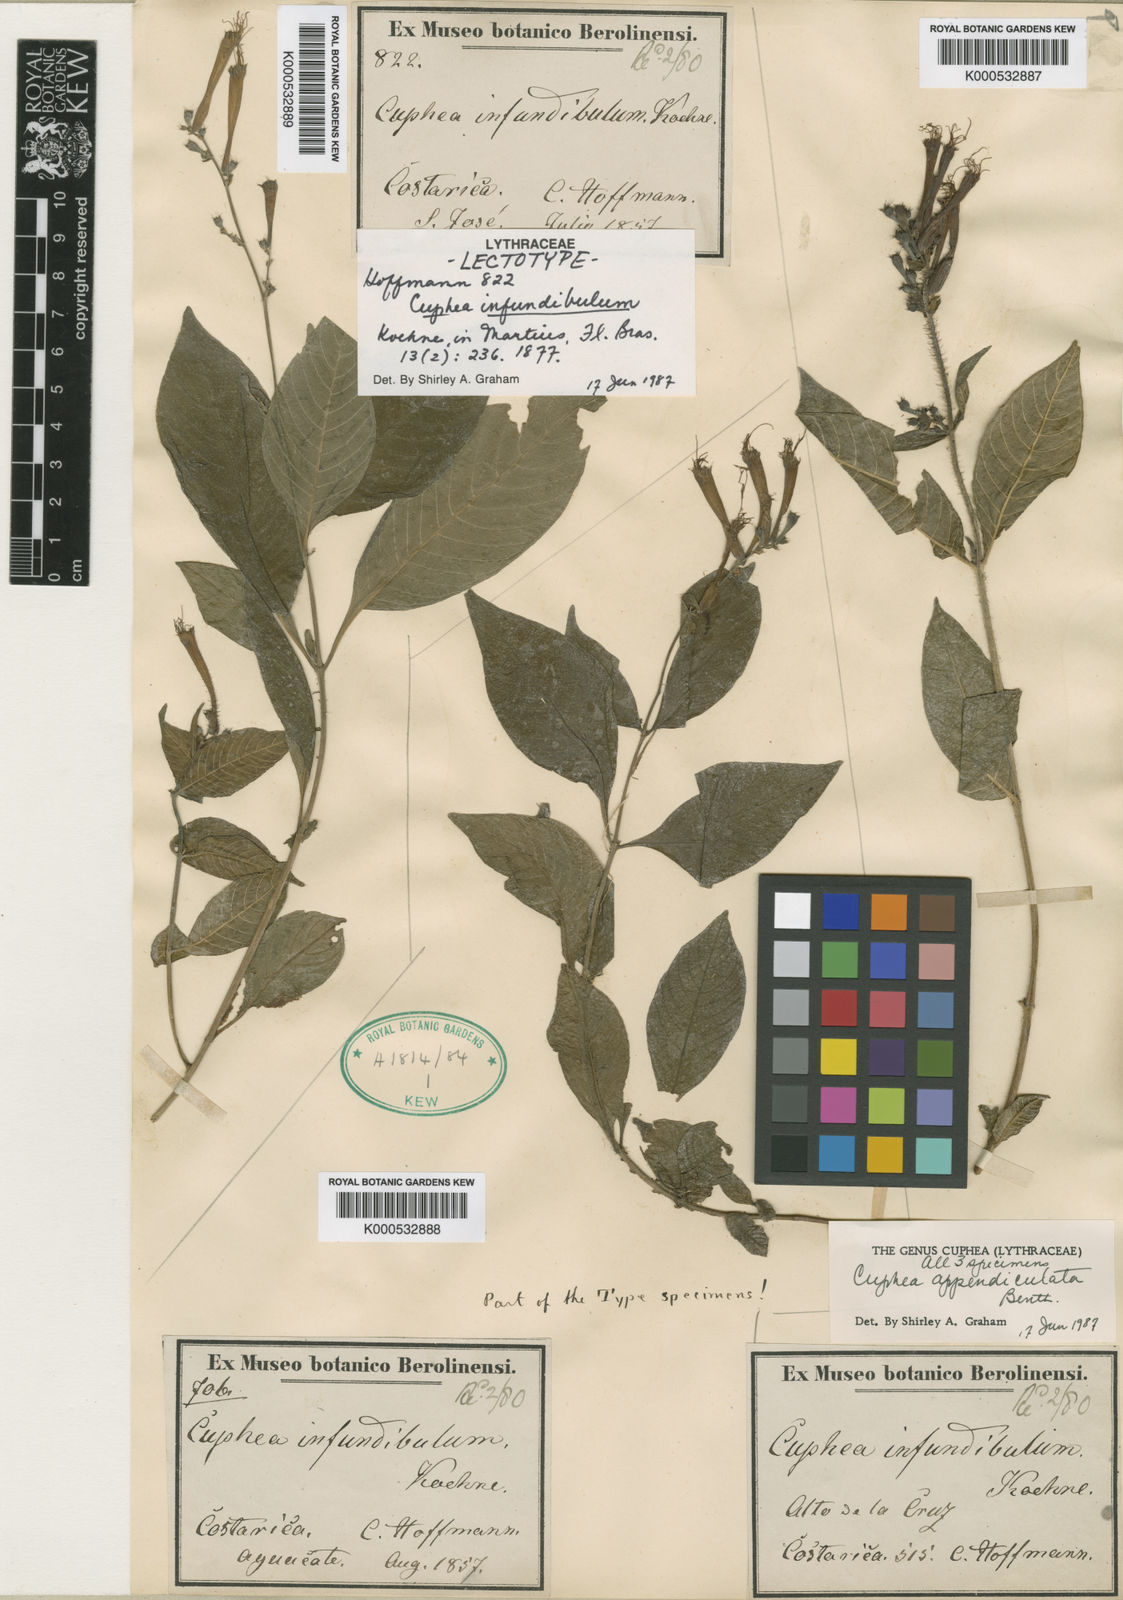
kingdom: Plantae
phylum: Tracheophyta
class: Magnoliopsida
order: Myrtales
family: Lythraceae
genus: Cuphea
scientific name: Cuphea appendiculata
